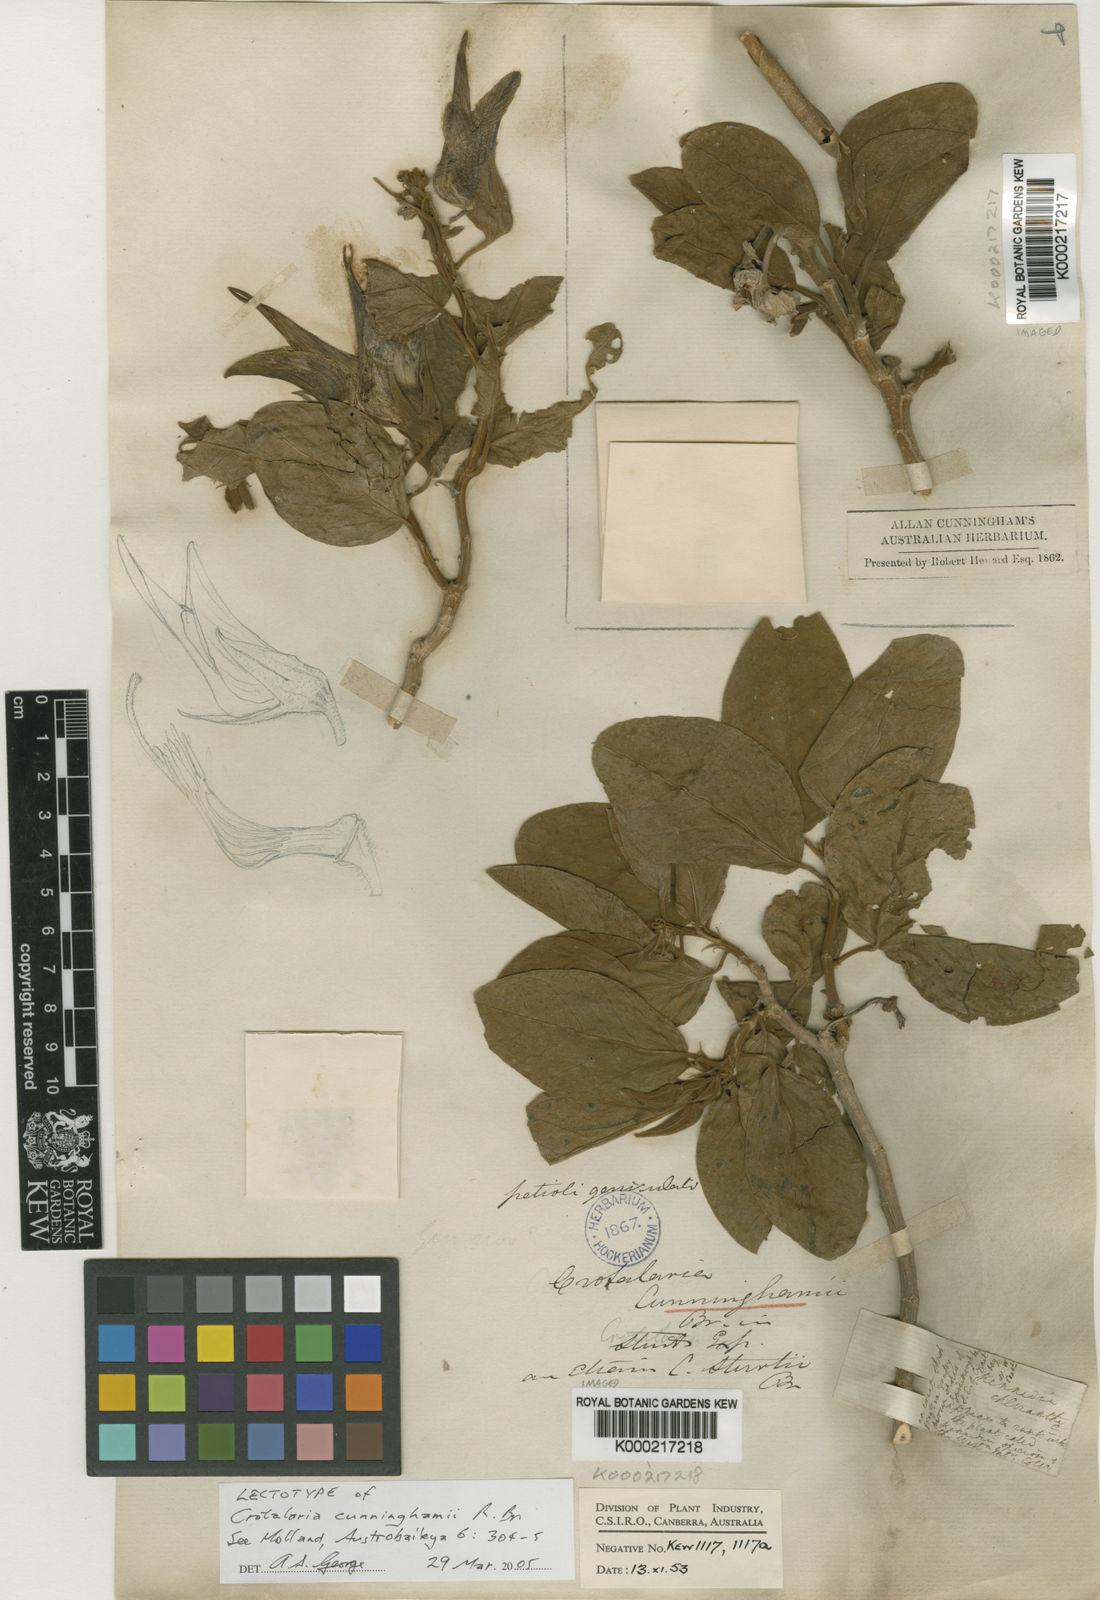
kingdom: Plantae
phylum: Tracheophyta
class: Magnoliopsida
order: Fabales
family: Fabaceae
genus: Crotalaria
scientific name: Crotalaria cunninghamii
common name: Birdflower rattlepod
